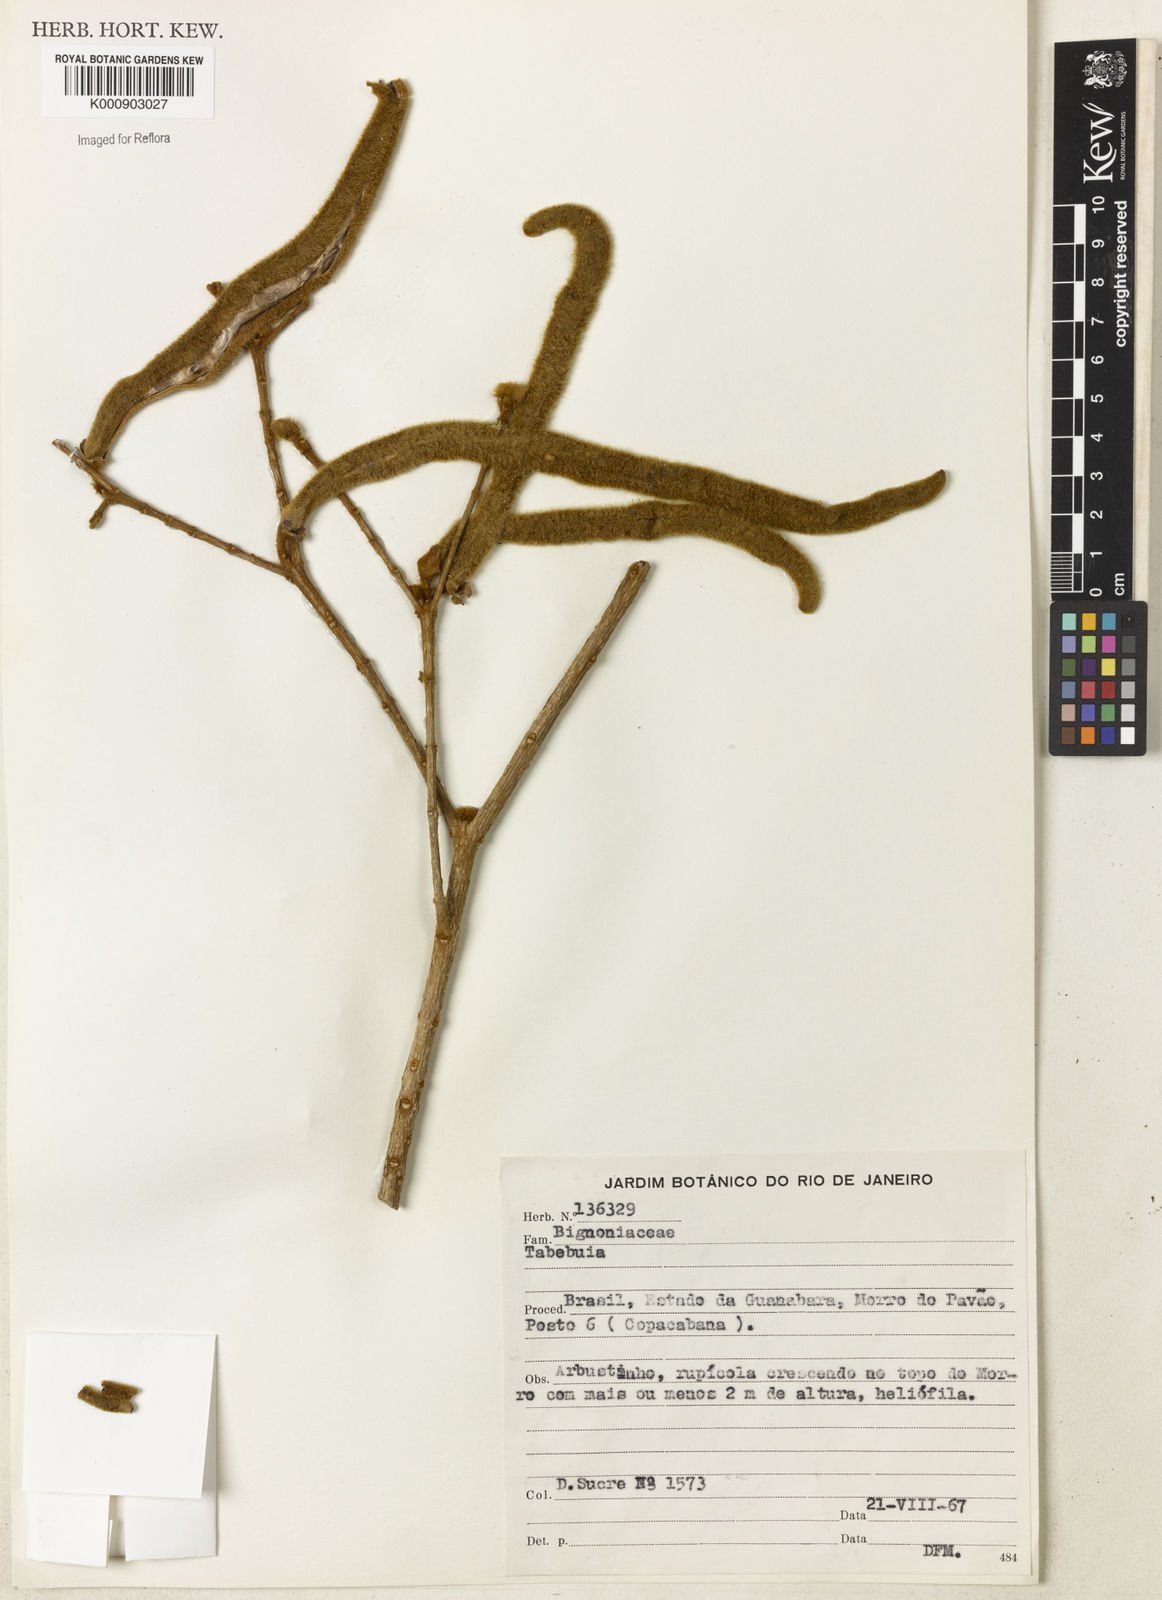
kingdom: Plantae
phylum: Tracheophyta
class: Magnoliopsida
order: Lamiales
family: Bignoniaceae
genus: Handroanthus
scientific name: Handroanthus chrysotrichus
